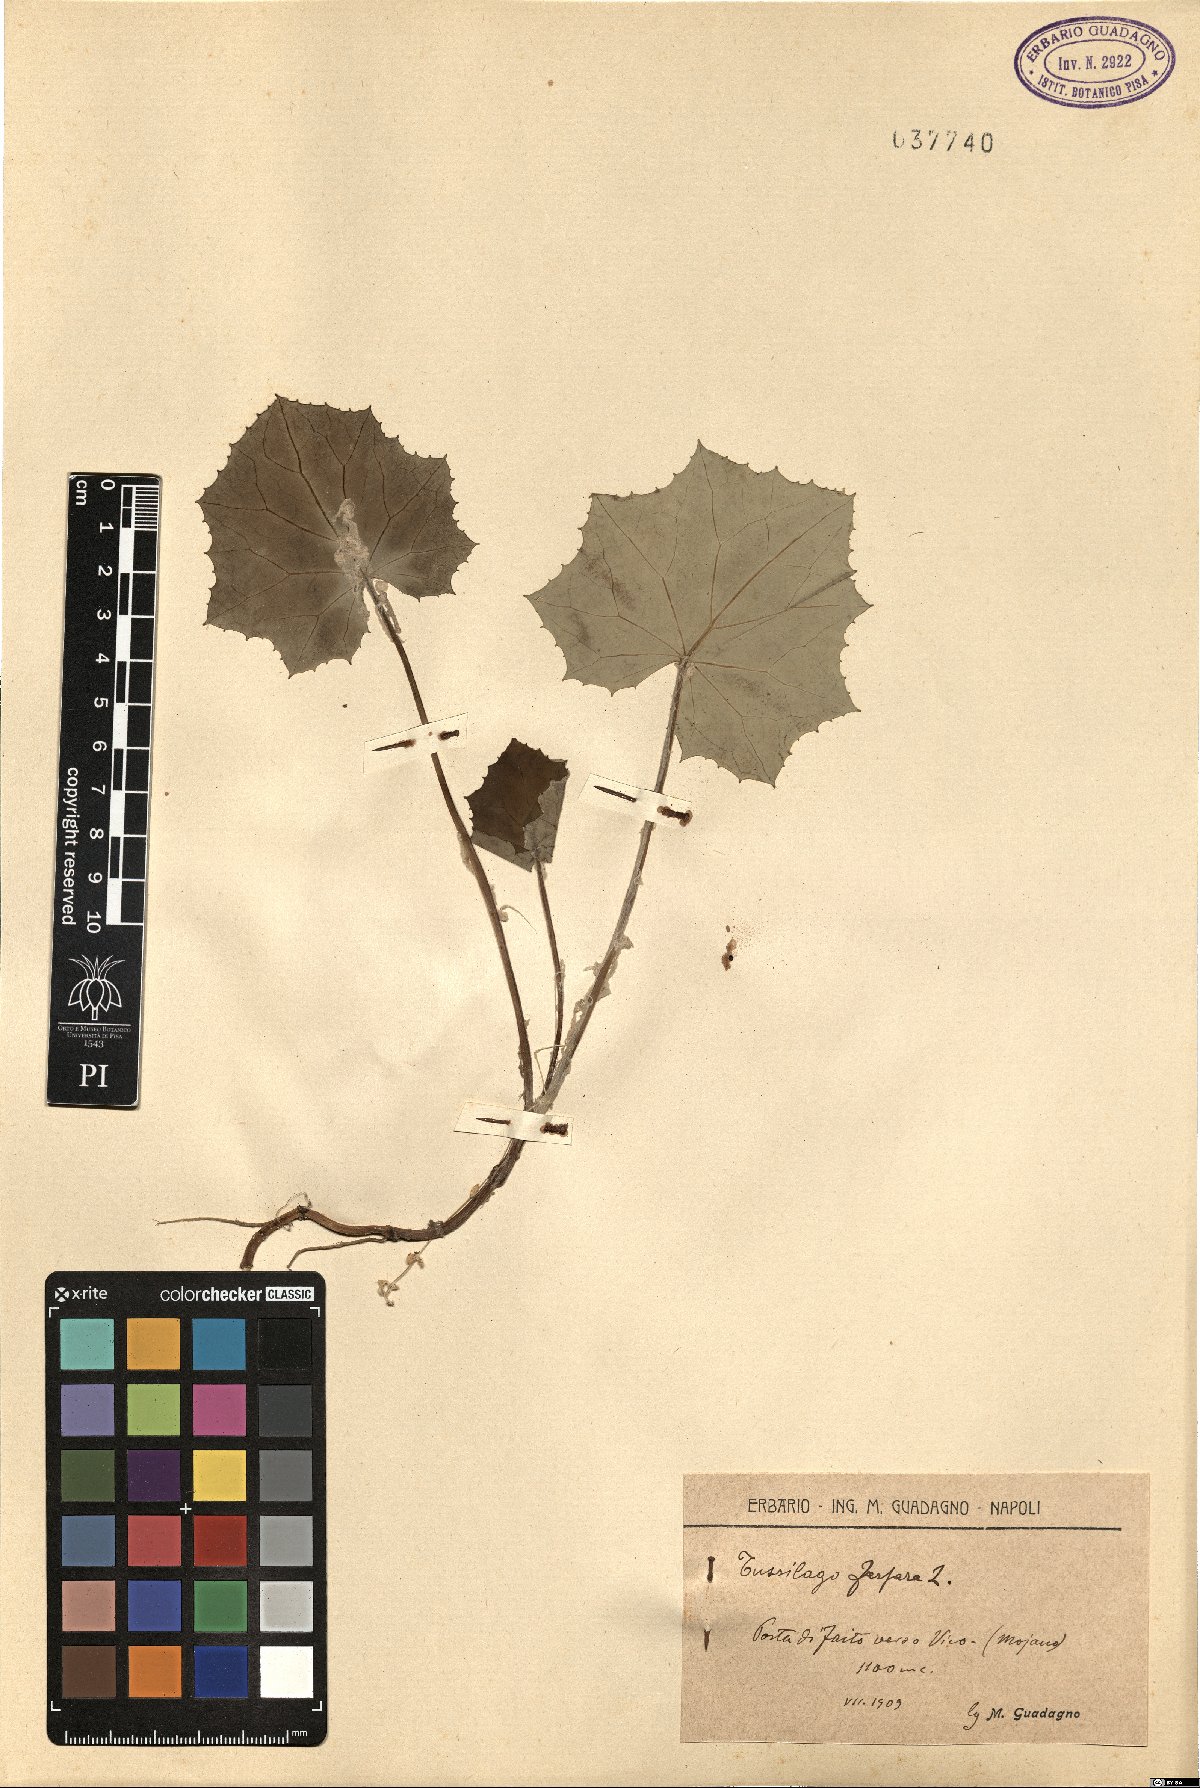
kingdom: Plantae
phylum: Tracheophyta
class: Magnoliopsida
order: Asterales
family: Asteraceae
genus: Tussilago
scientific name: Tussilago farfara
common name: Coltsfoot
